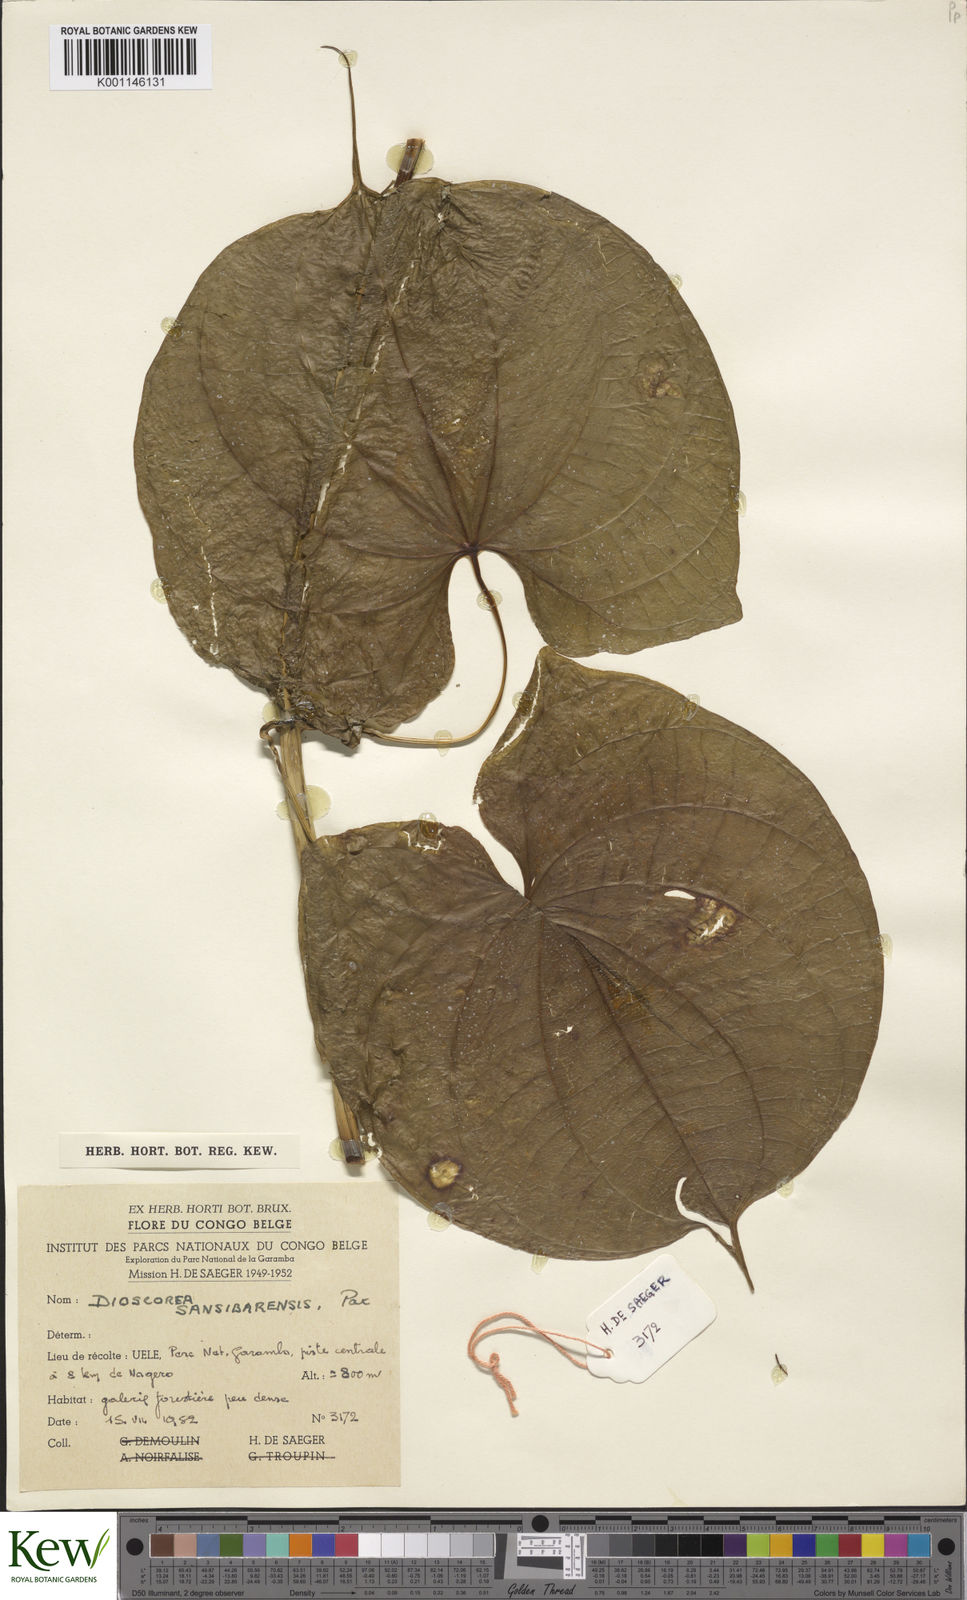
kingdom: Plantae
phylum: Tracheophyta
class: Liliopsida
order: Dioscoreales
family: Dioscoreaceae
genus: Dioscorea
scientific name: Dioscorea sansibarensis
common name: Zanzibar yam
